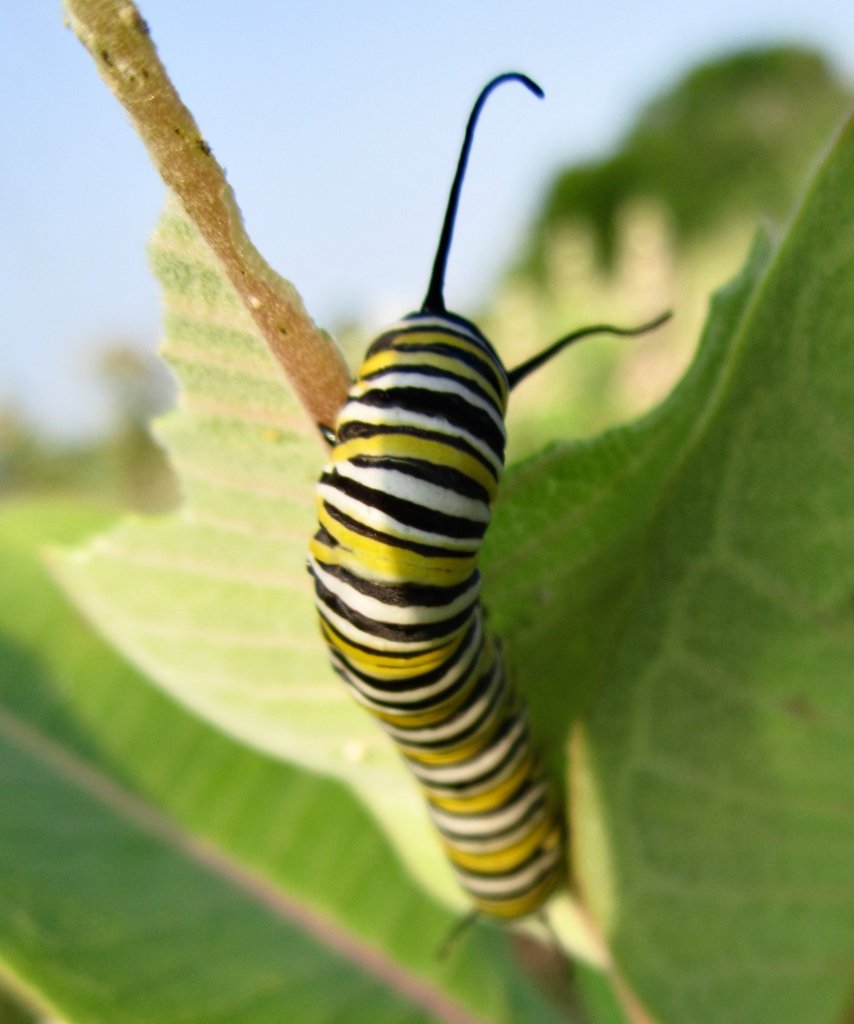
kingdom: Animalia
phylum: Arthropoda
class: Insecta
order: Lepidoptera
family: Nymphalidae
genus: Danaus
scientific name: Danaus plexippus
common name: Monarch
